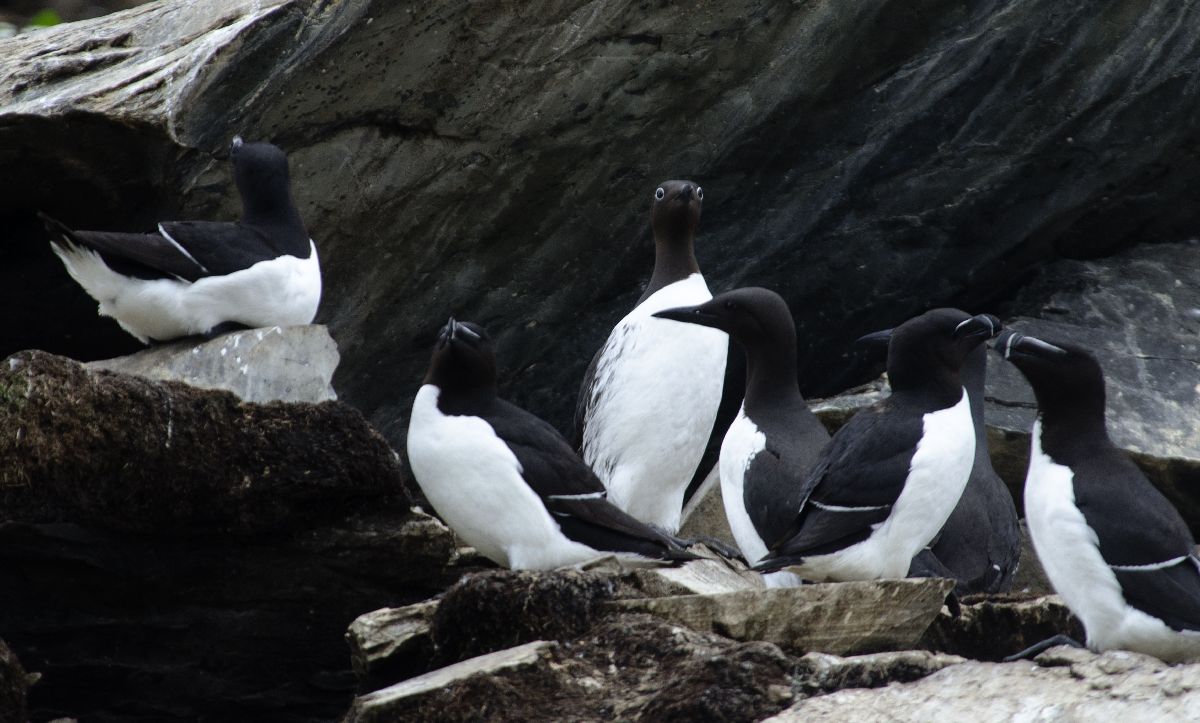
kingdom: Animalia
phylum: Chordata
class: Aves
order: Charadriiformes
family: Alcidae
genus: Uria
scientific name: Uria aalge
